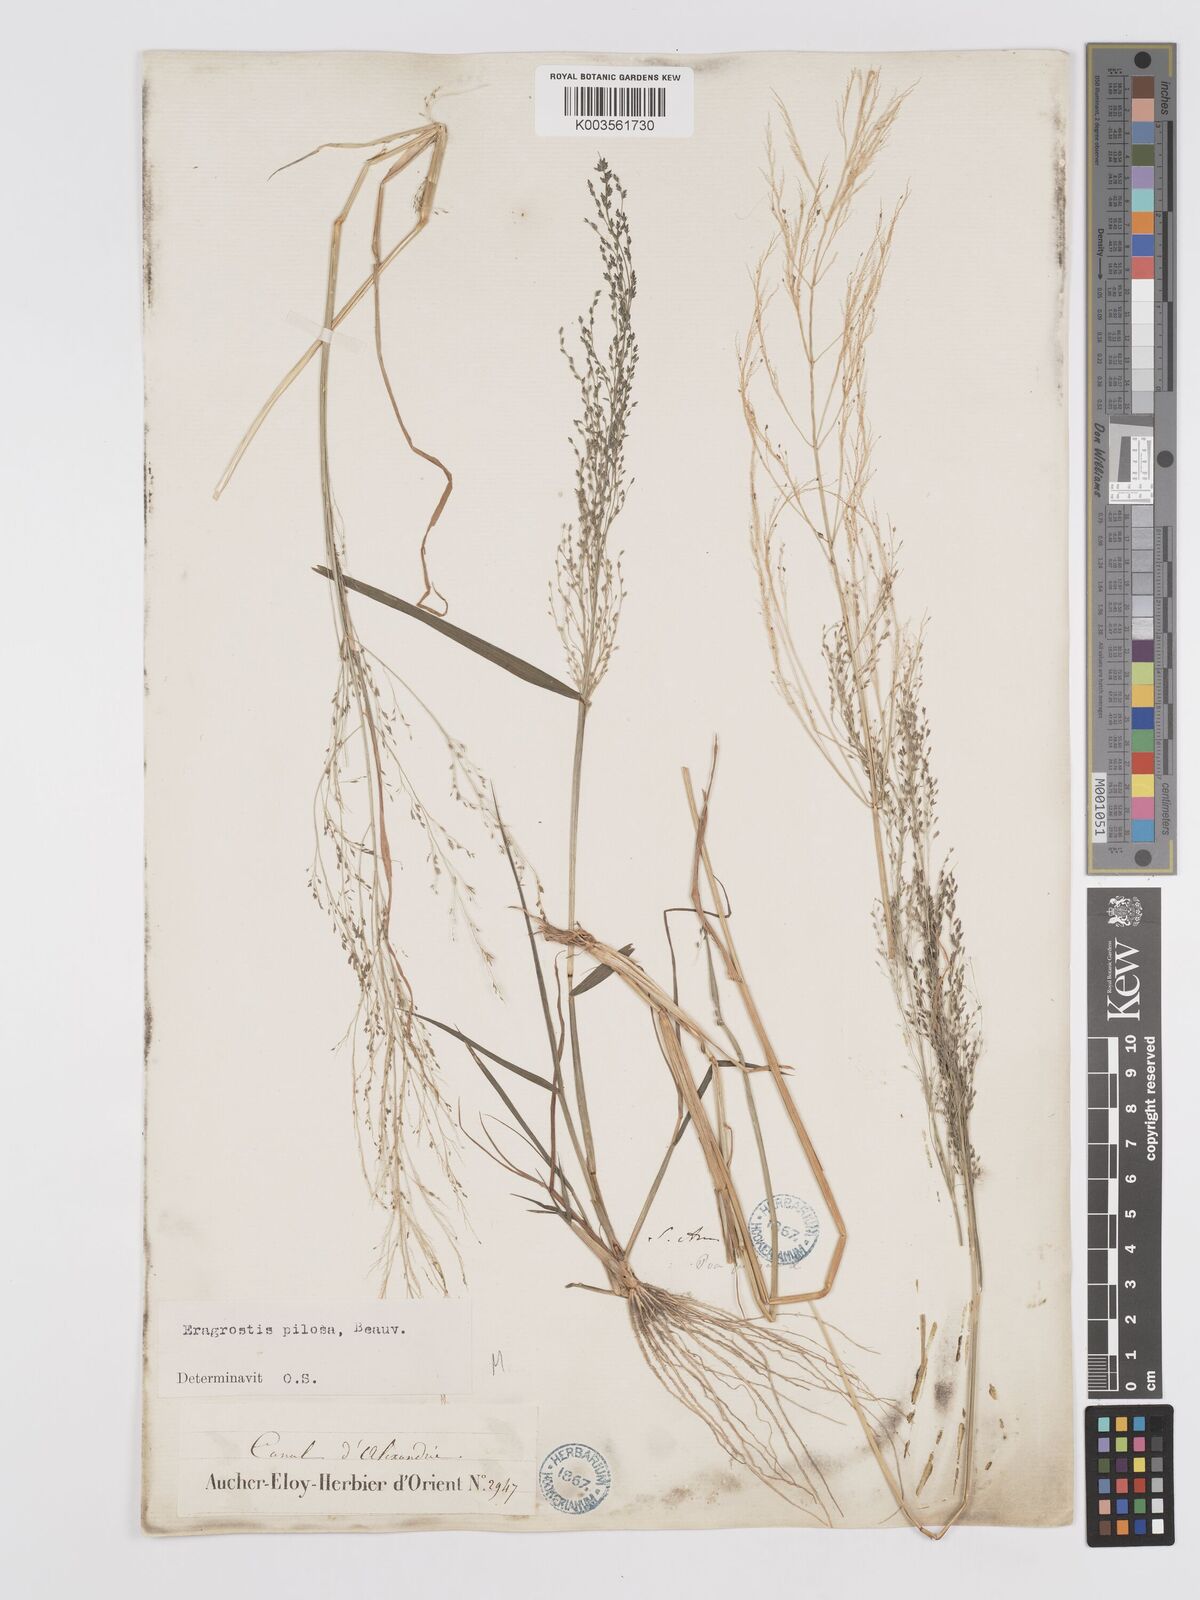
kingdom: Plantae
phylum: Tracheophyta
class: Liliopsida
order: Poales
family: Poaceae
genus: Eragrostis
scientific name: Eragrostis pilosa
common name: Indian lovegrass
